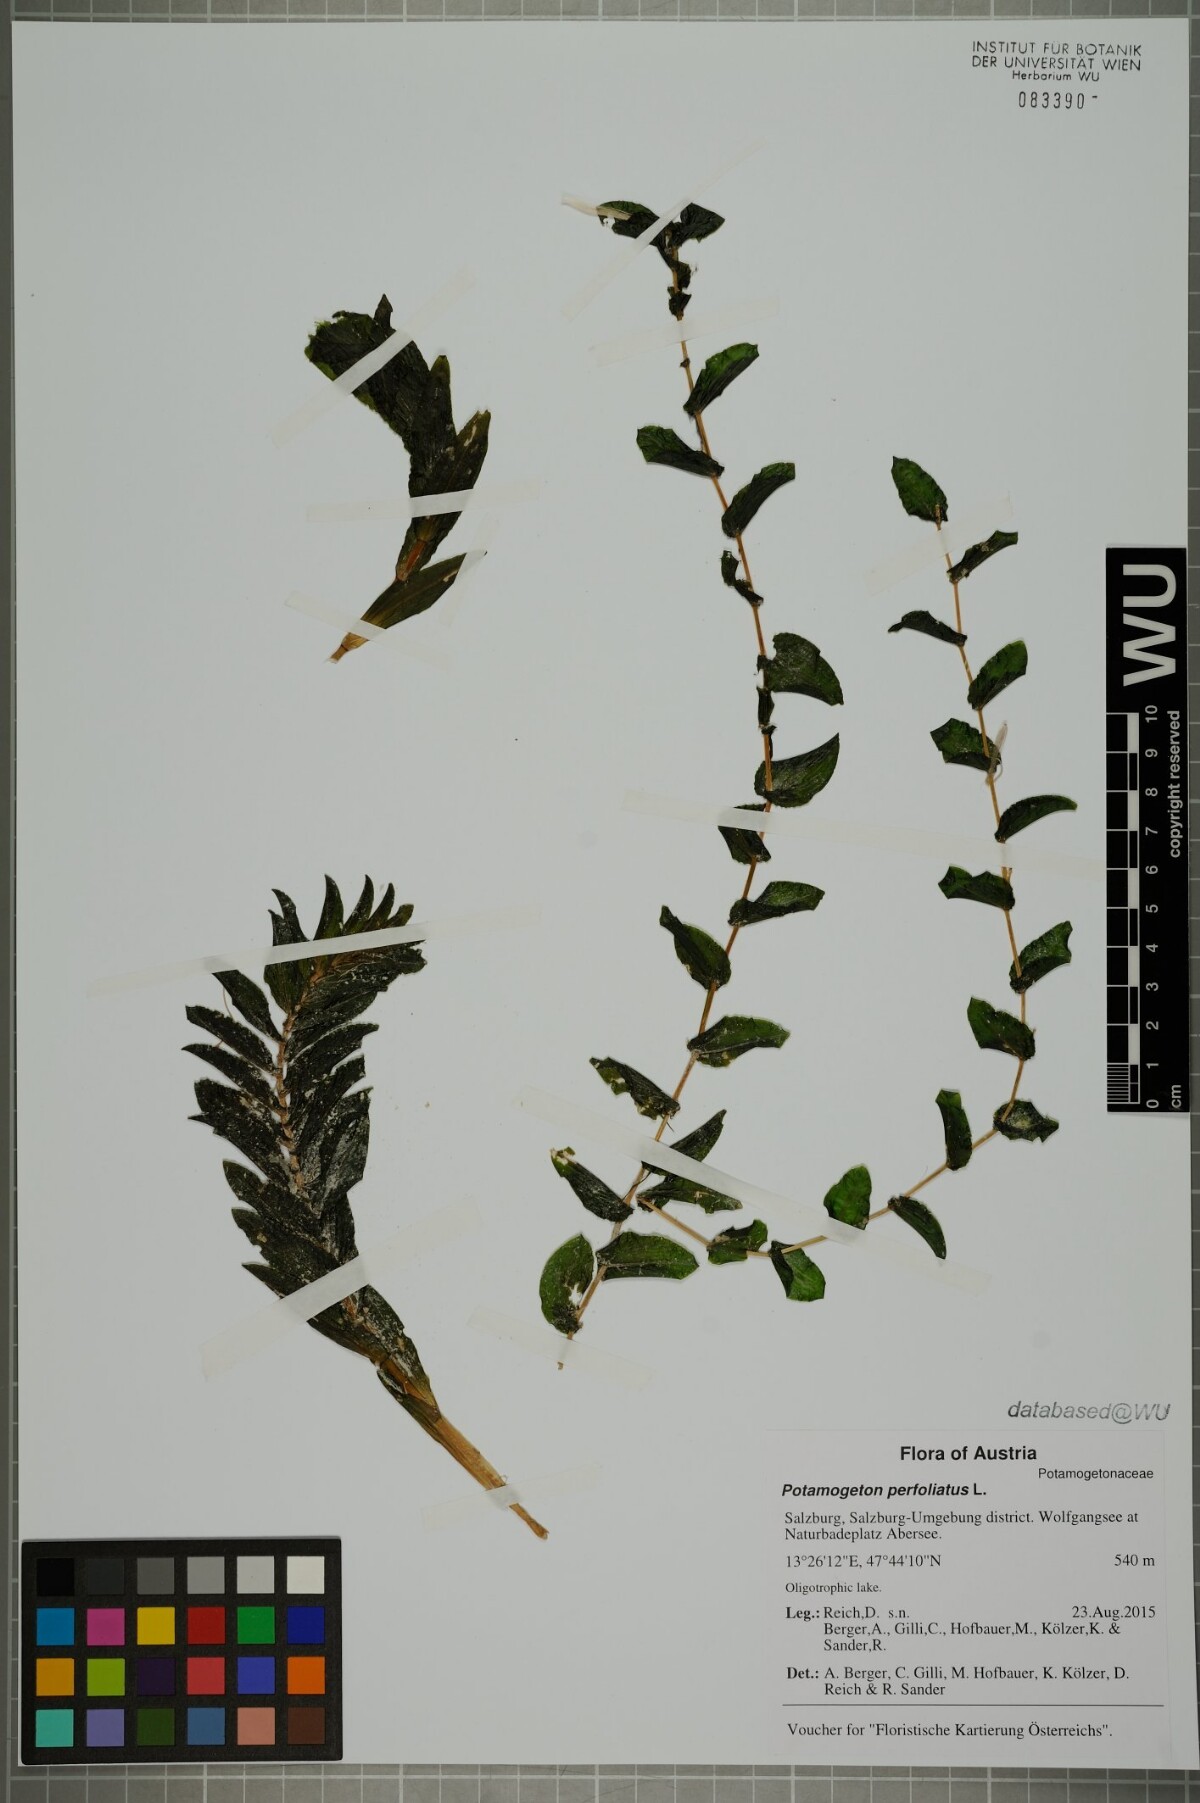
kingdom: Plantae
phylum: Tracheophyta
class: Liliopsida
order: Alismatales
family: Potamogetonaceae
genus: Potamogeton
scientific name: Potamogeton perfoliatus
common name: Perfoliate pondweed
